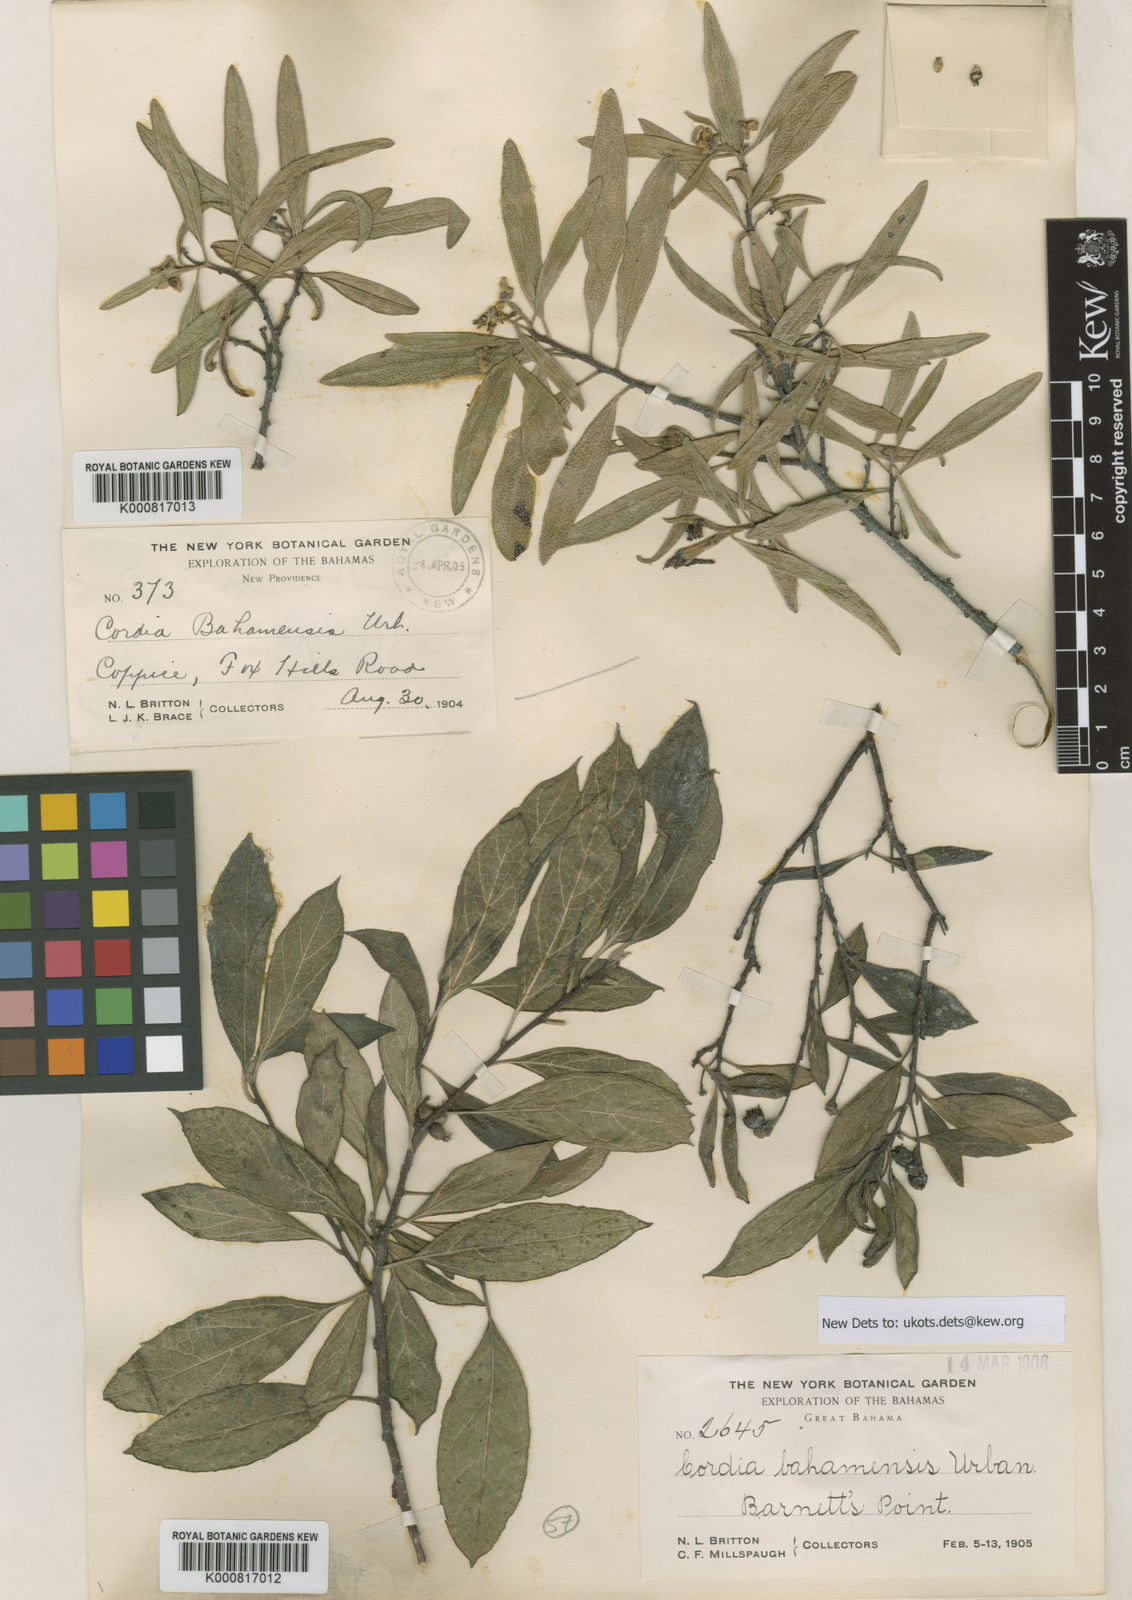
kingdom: Plantae
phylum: Tracheophyta
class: Magnoliopsida
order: Boraginales
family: Cordiaceae
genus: Varronia
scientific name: Varronia bahamensis
